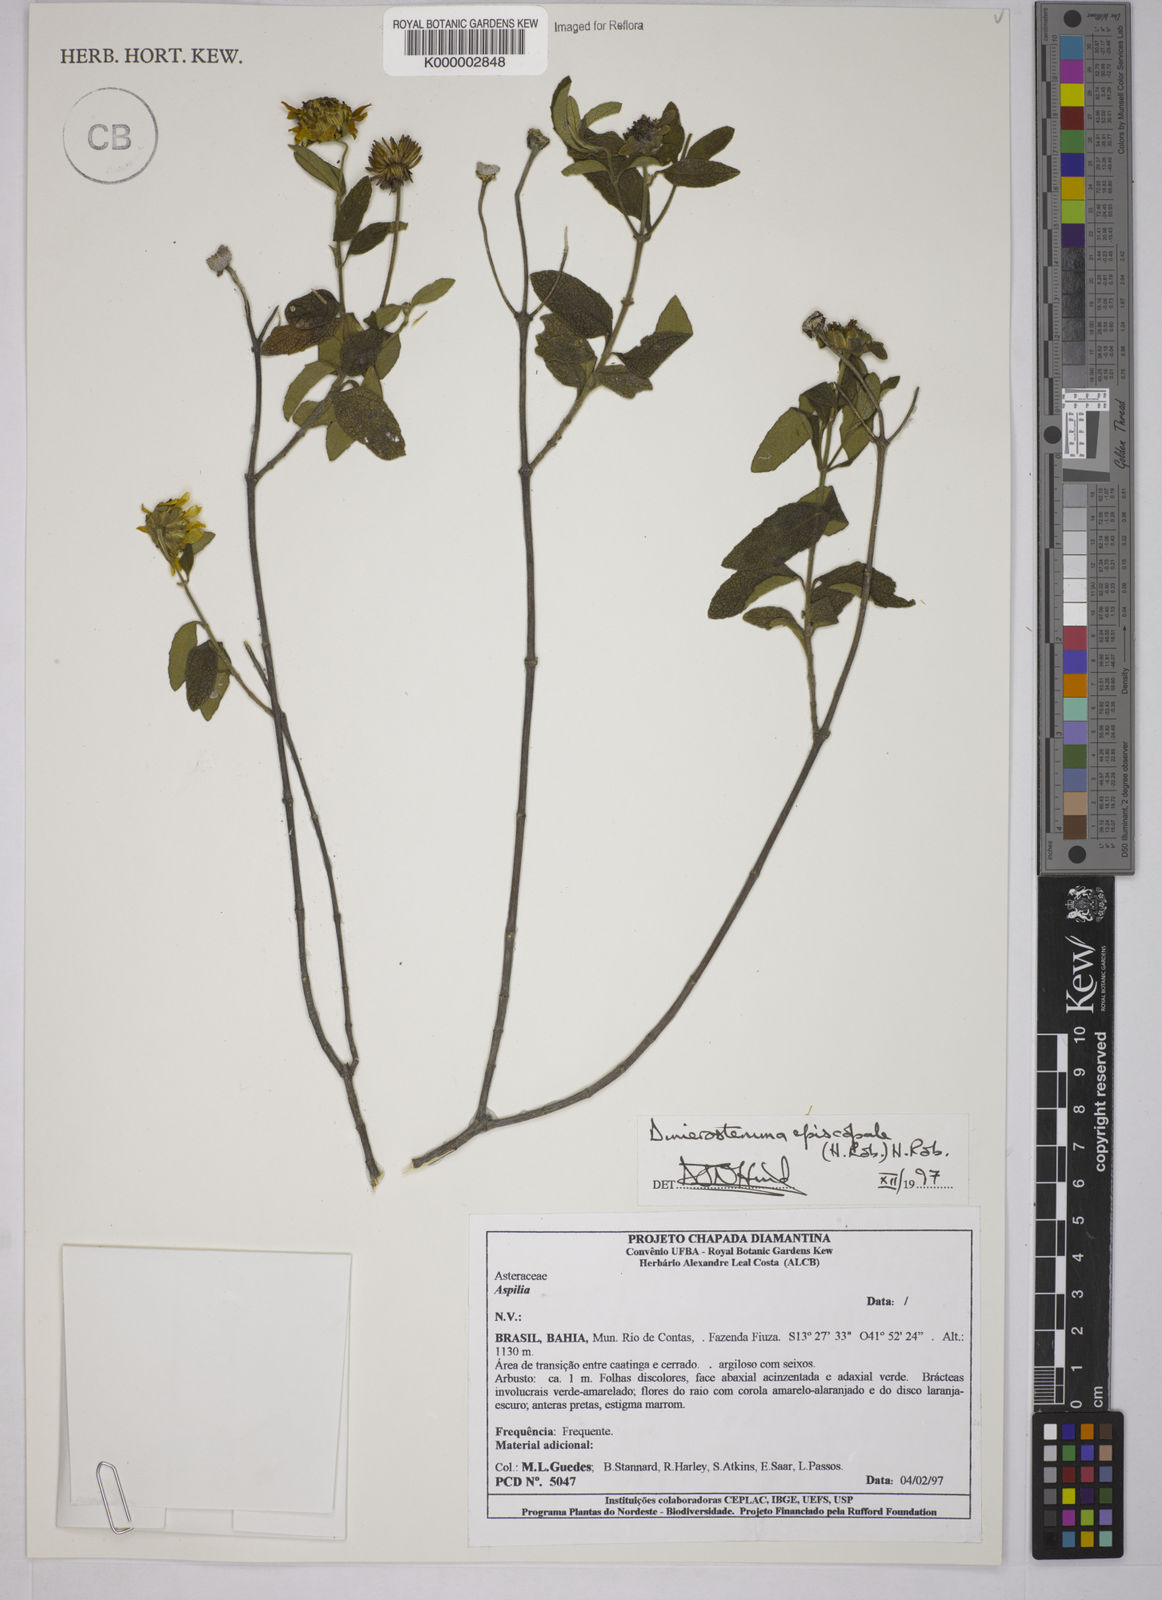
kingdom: Plantae
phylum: Tracheophyta
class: Magnoliopsida
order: Asterales
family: Asteraceae
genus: Dimerostemma
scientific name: Dimerostemma episcopale
